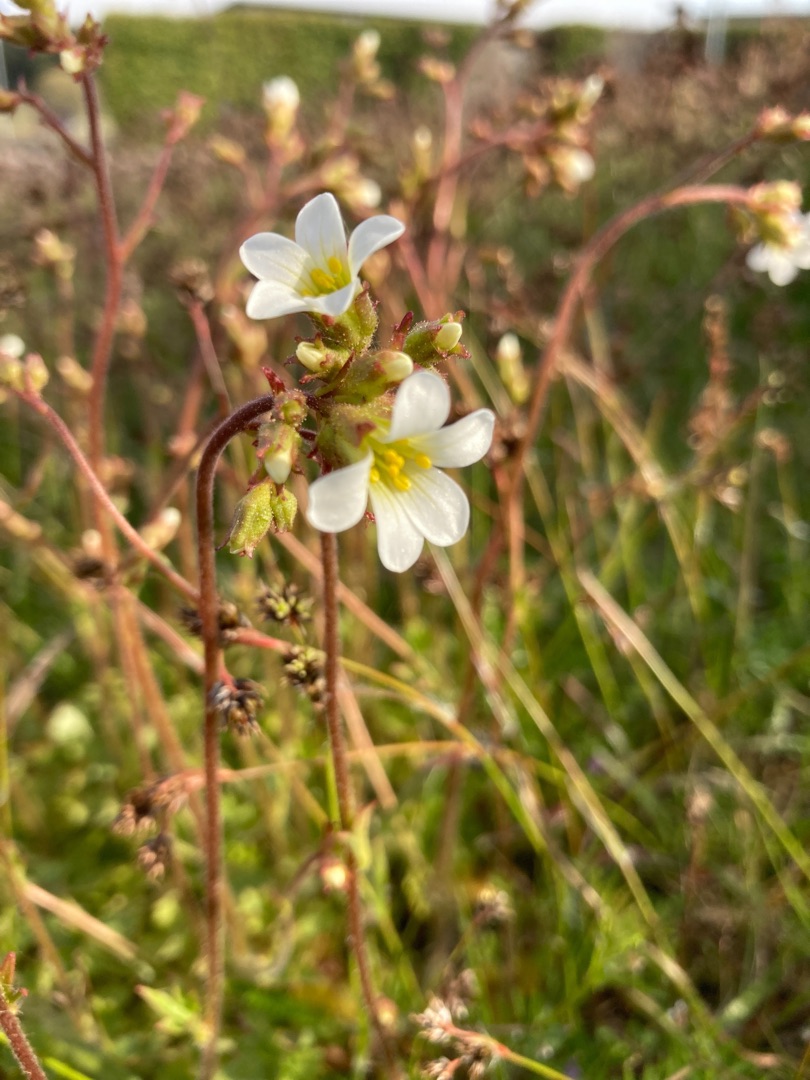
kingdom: Plantae
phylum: Tracheophyta
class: Magnoliopsida
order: Saxifragales
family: Saxifragaceae
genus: Saxifraga
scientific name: Saxifraga granulata
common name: Kornet stenbræk
